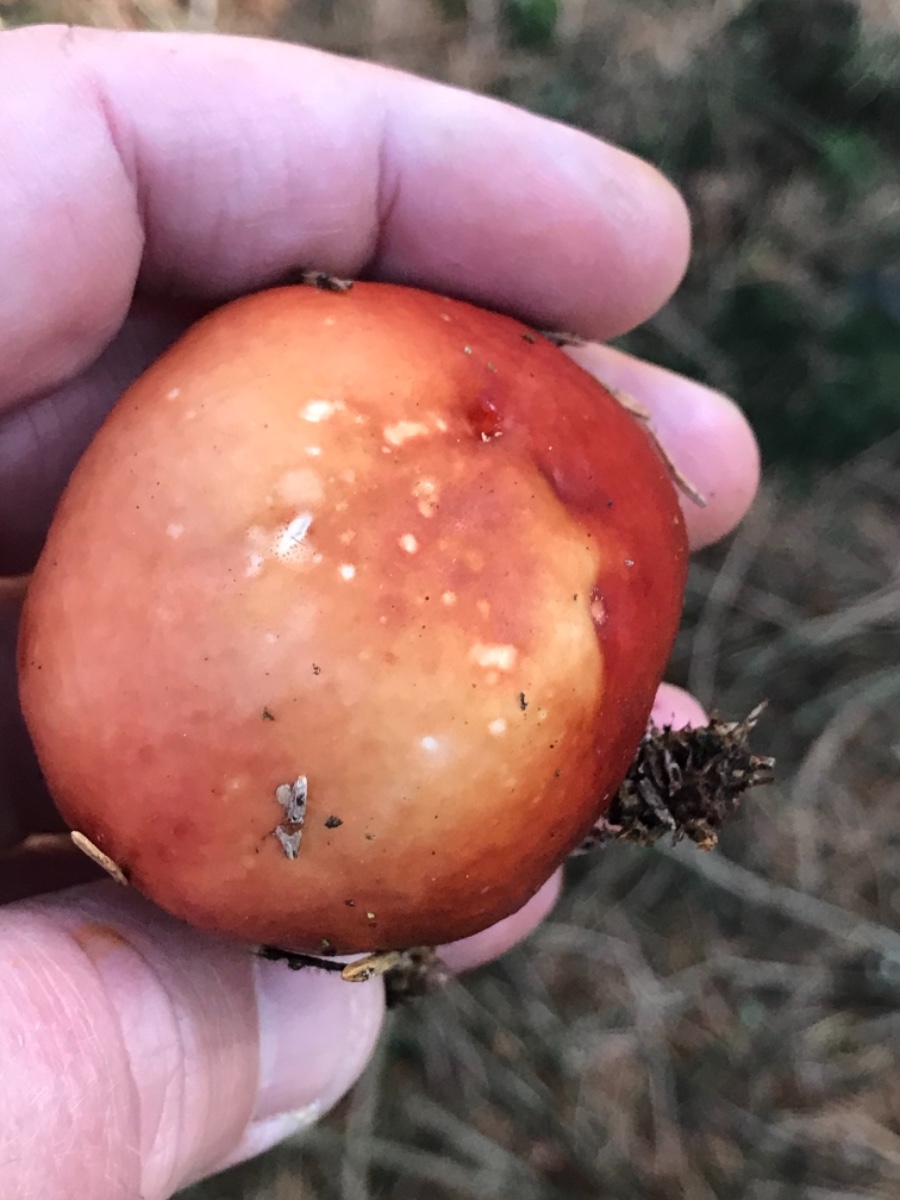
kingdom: Fungi
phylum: Basidiomycota
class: Agaricomycetes
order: Russulales
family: Russulaceae
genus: Russula
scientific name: Russula paludosa
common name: prægtig skørhat
